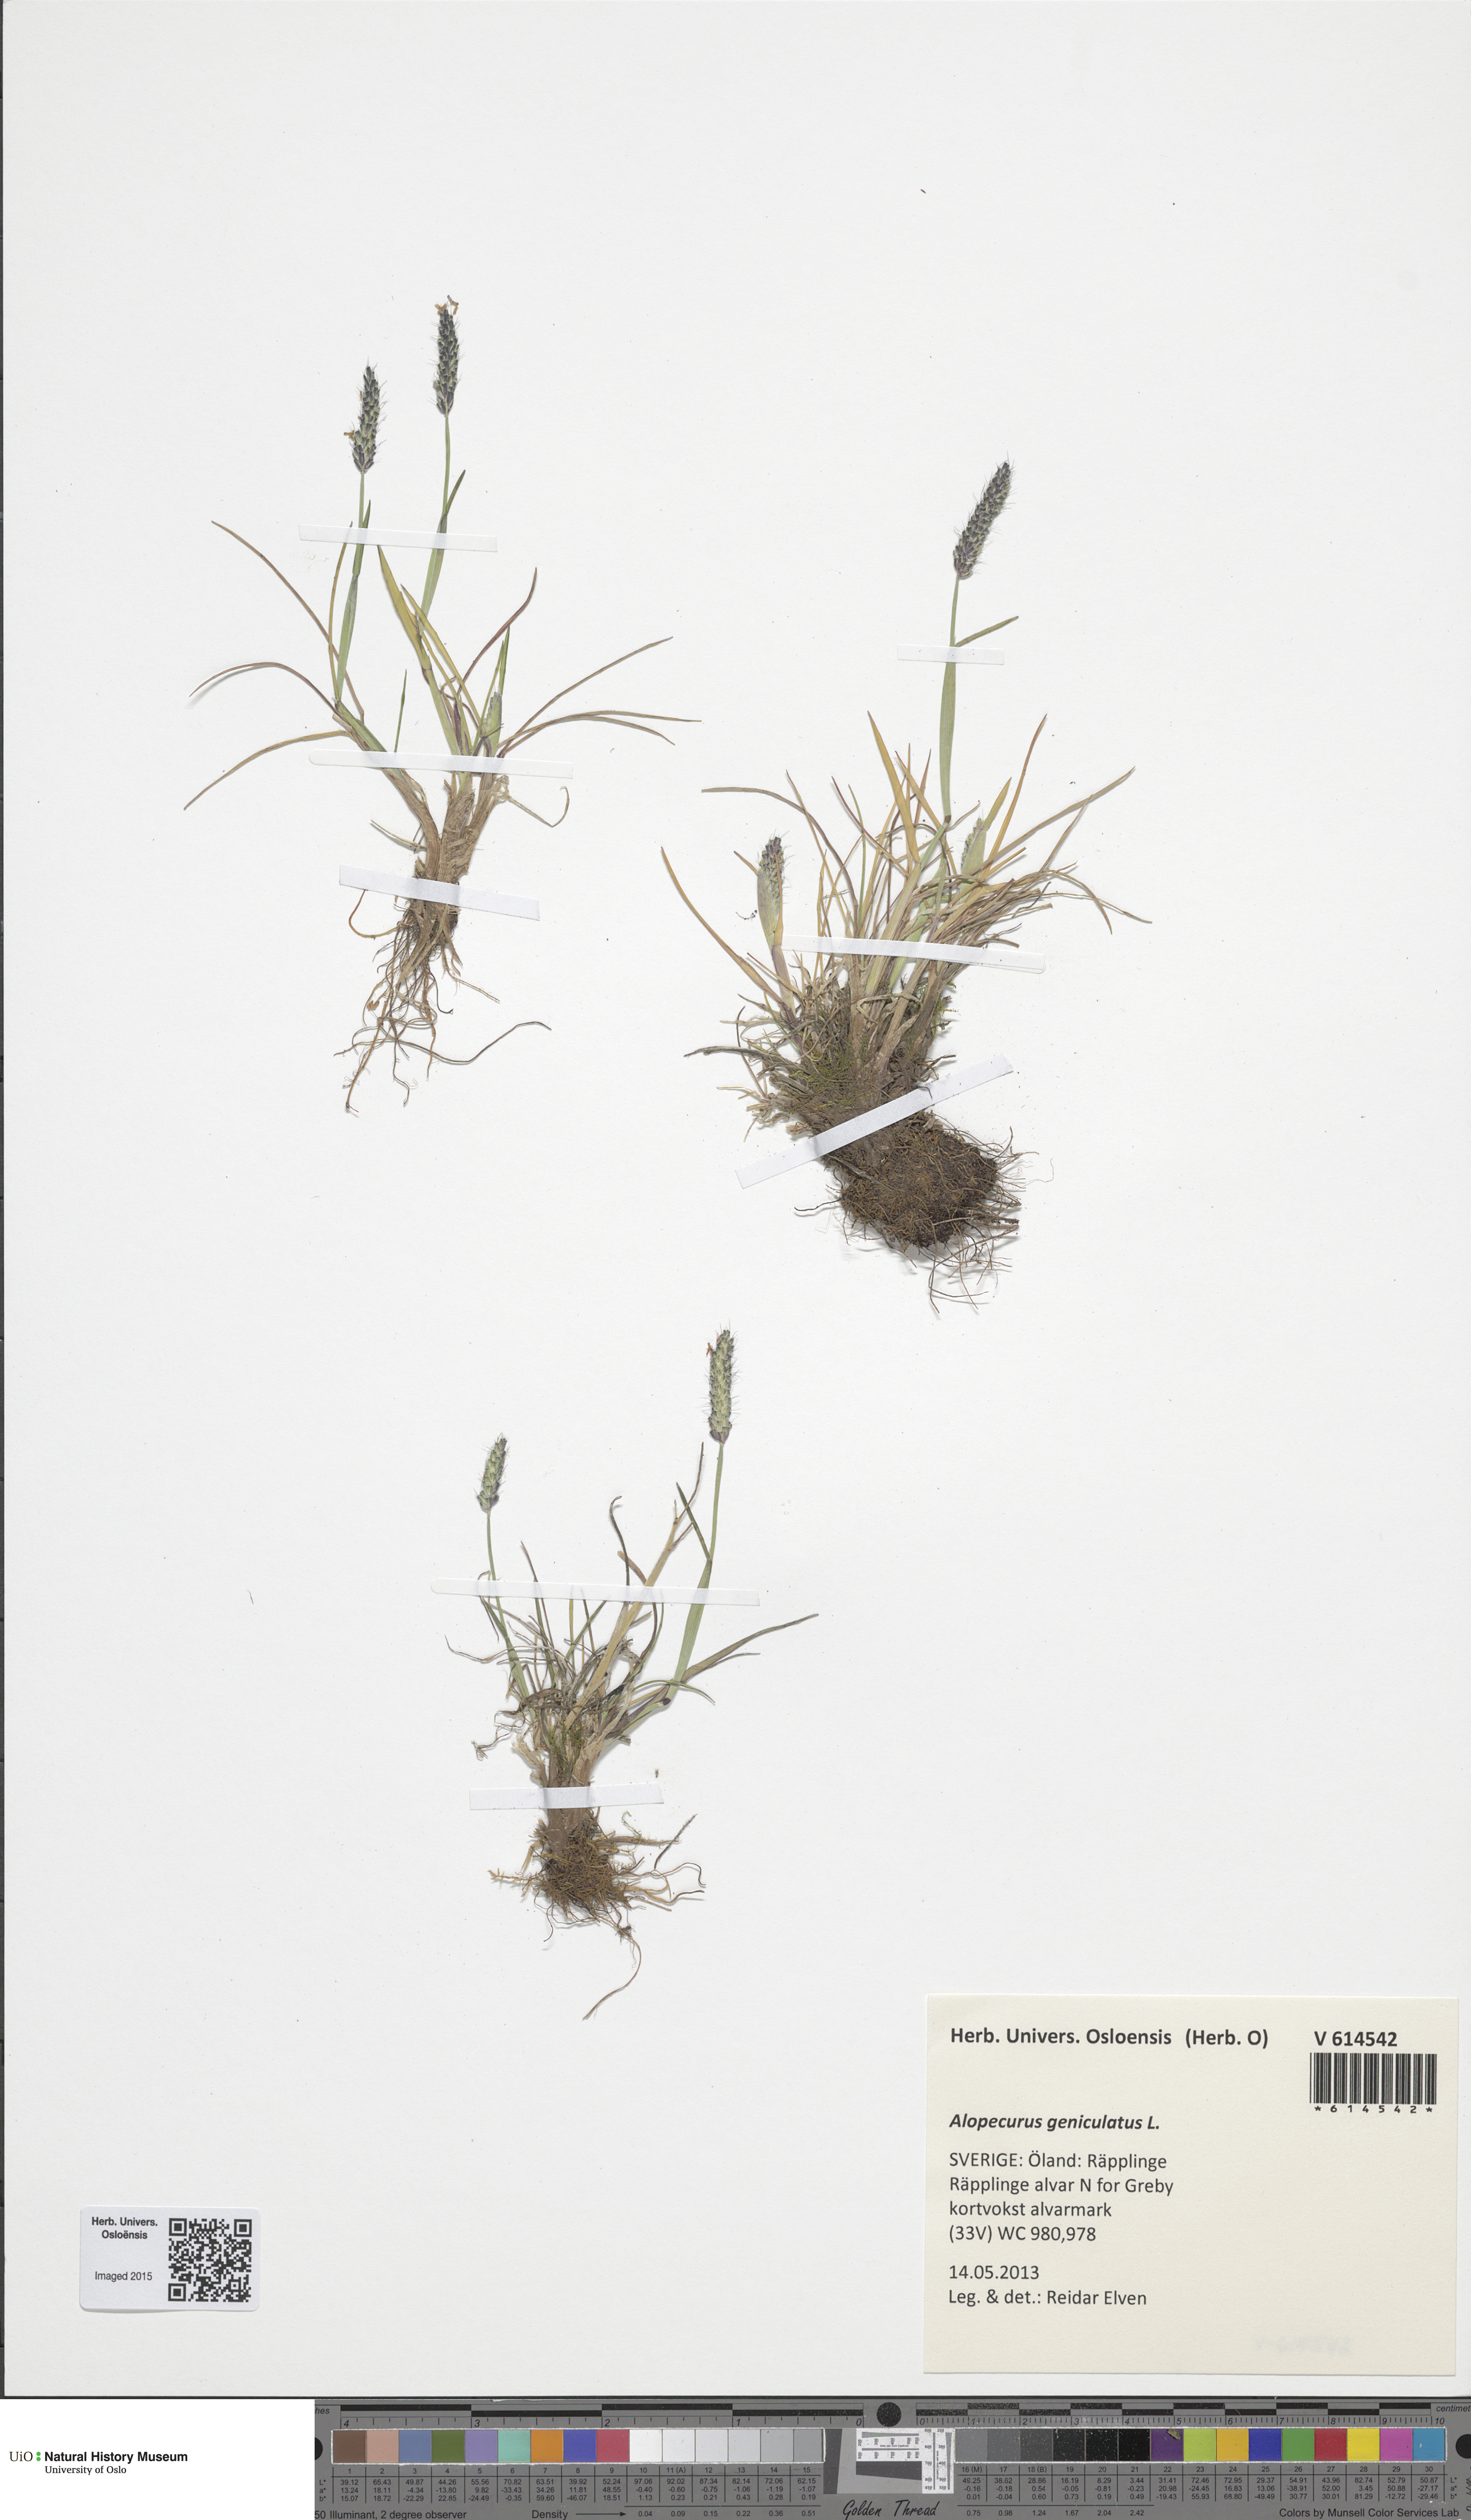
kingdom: Plantae
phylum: Tracheophyta
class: Liliopsida
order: Poales
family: Poaceae
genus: Alopecurus
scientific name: Alopecurus geniculatus
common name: Water foxtail
